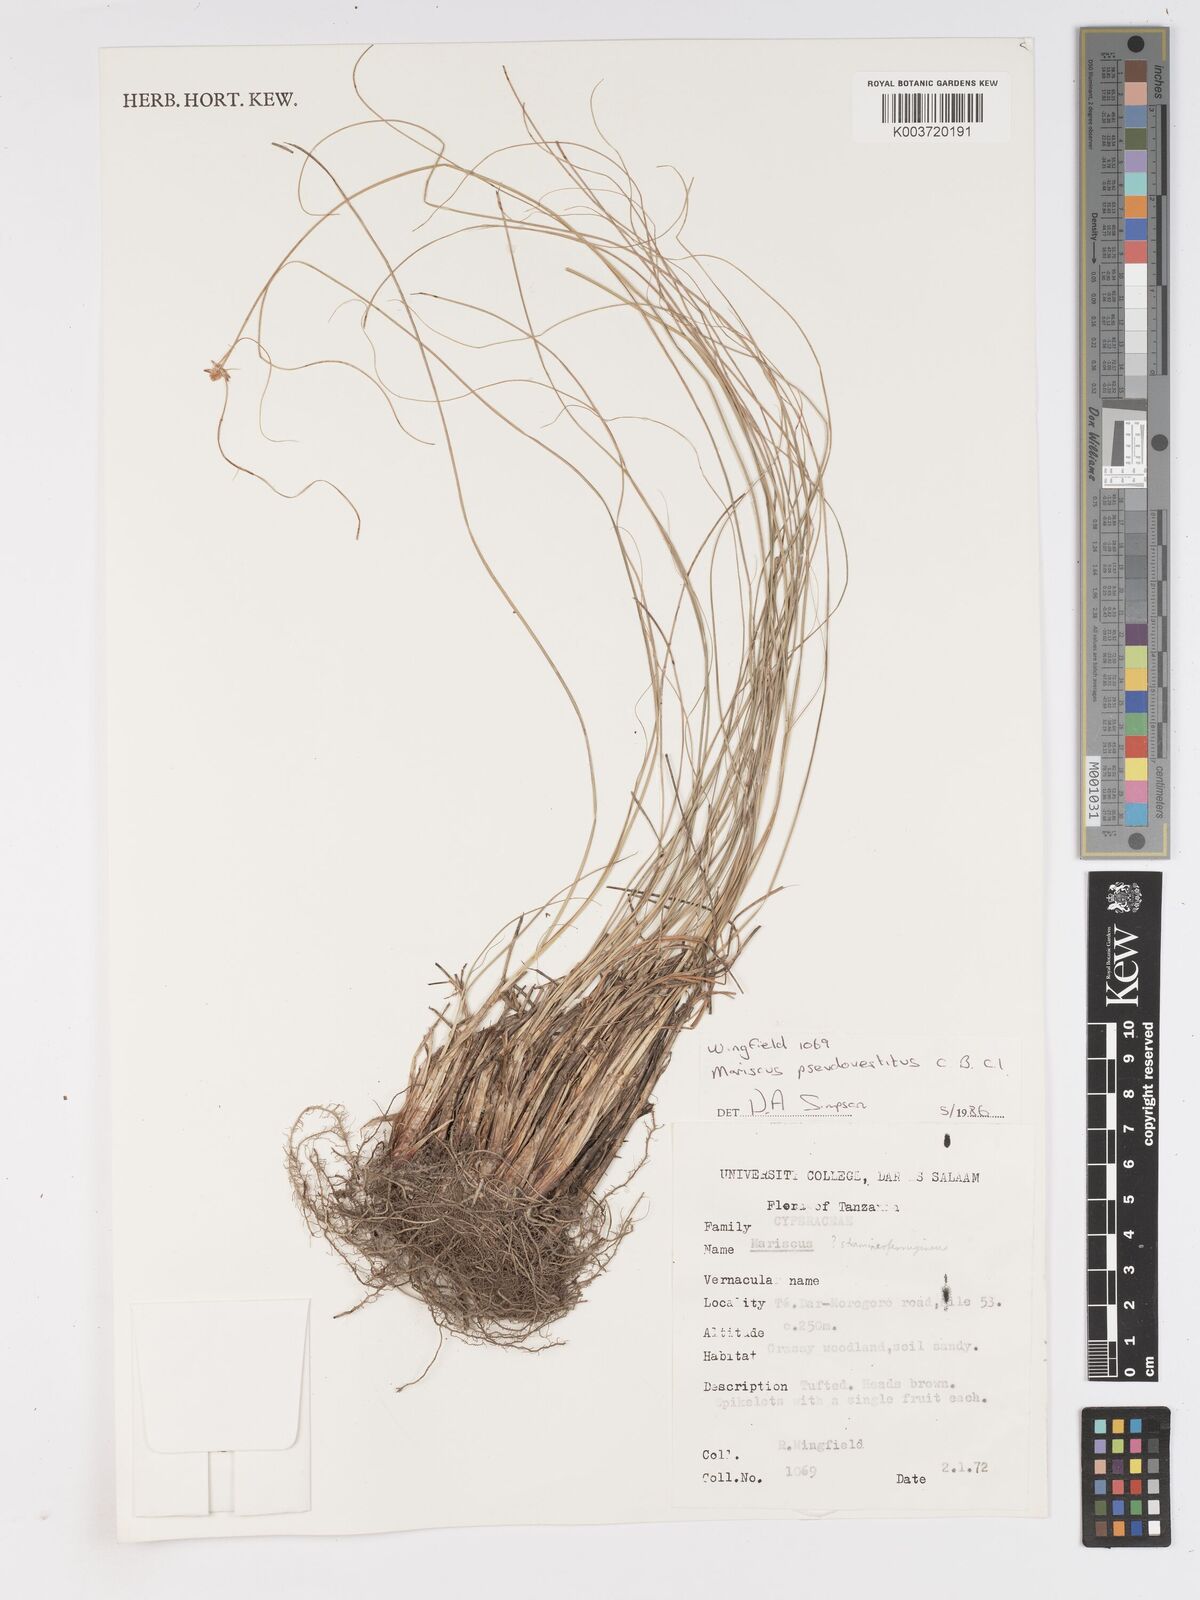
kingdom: Plantae
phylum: Tracheophyta
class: Liliopsida
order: Poales
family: Cyperaceae
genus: Cyperus
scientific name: Cyperus pseudovestitus
